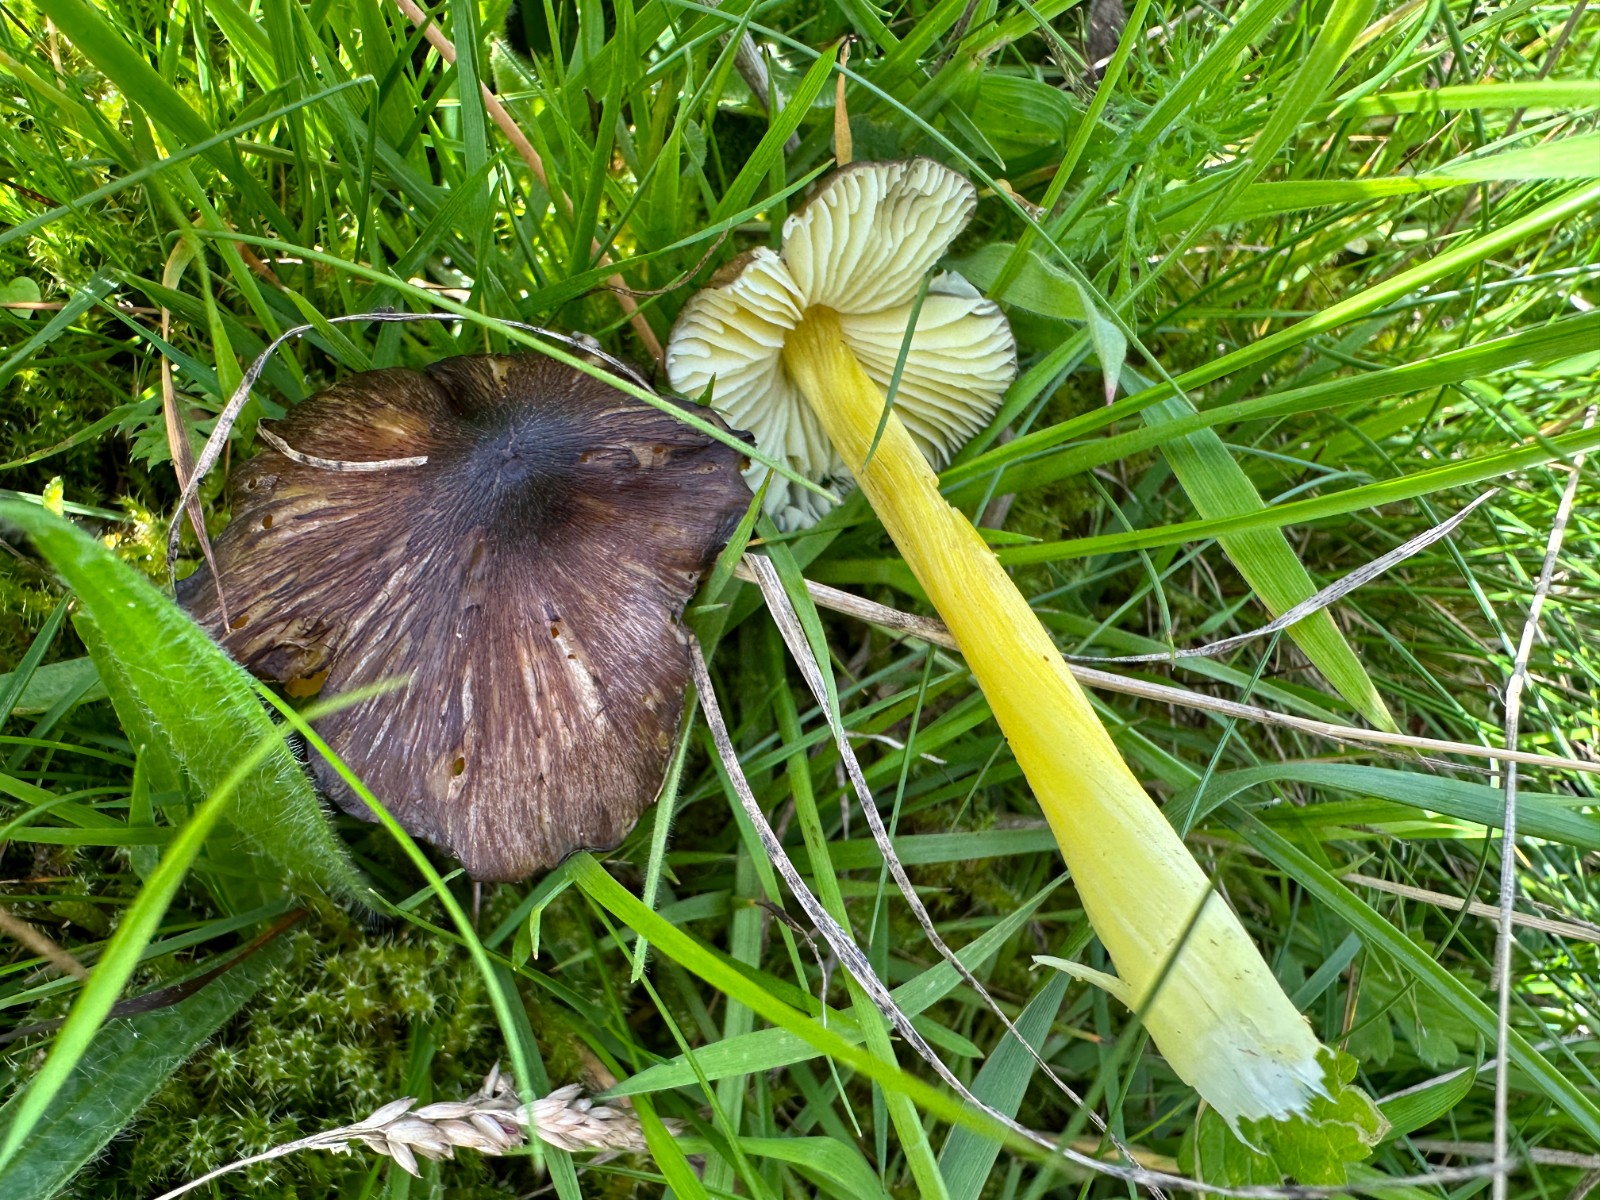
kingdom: Fungi
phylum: Basidiomycota
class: Agaricomycetes
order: Agaricales
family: Hygrophoraceae
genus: Hygrocybe
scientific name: Hygrocybe spadicea
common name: daddelbrun vokshat
